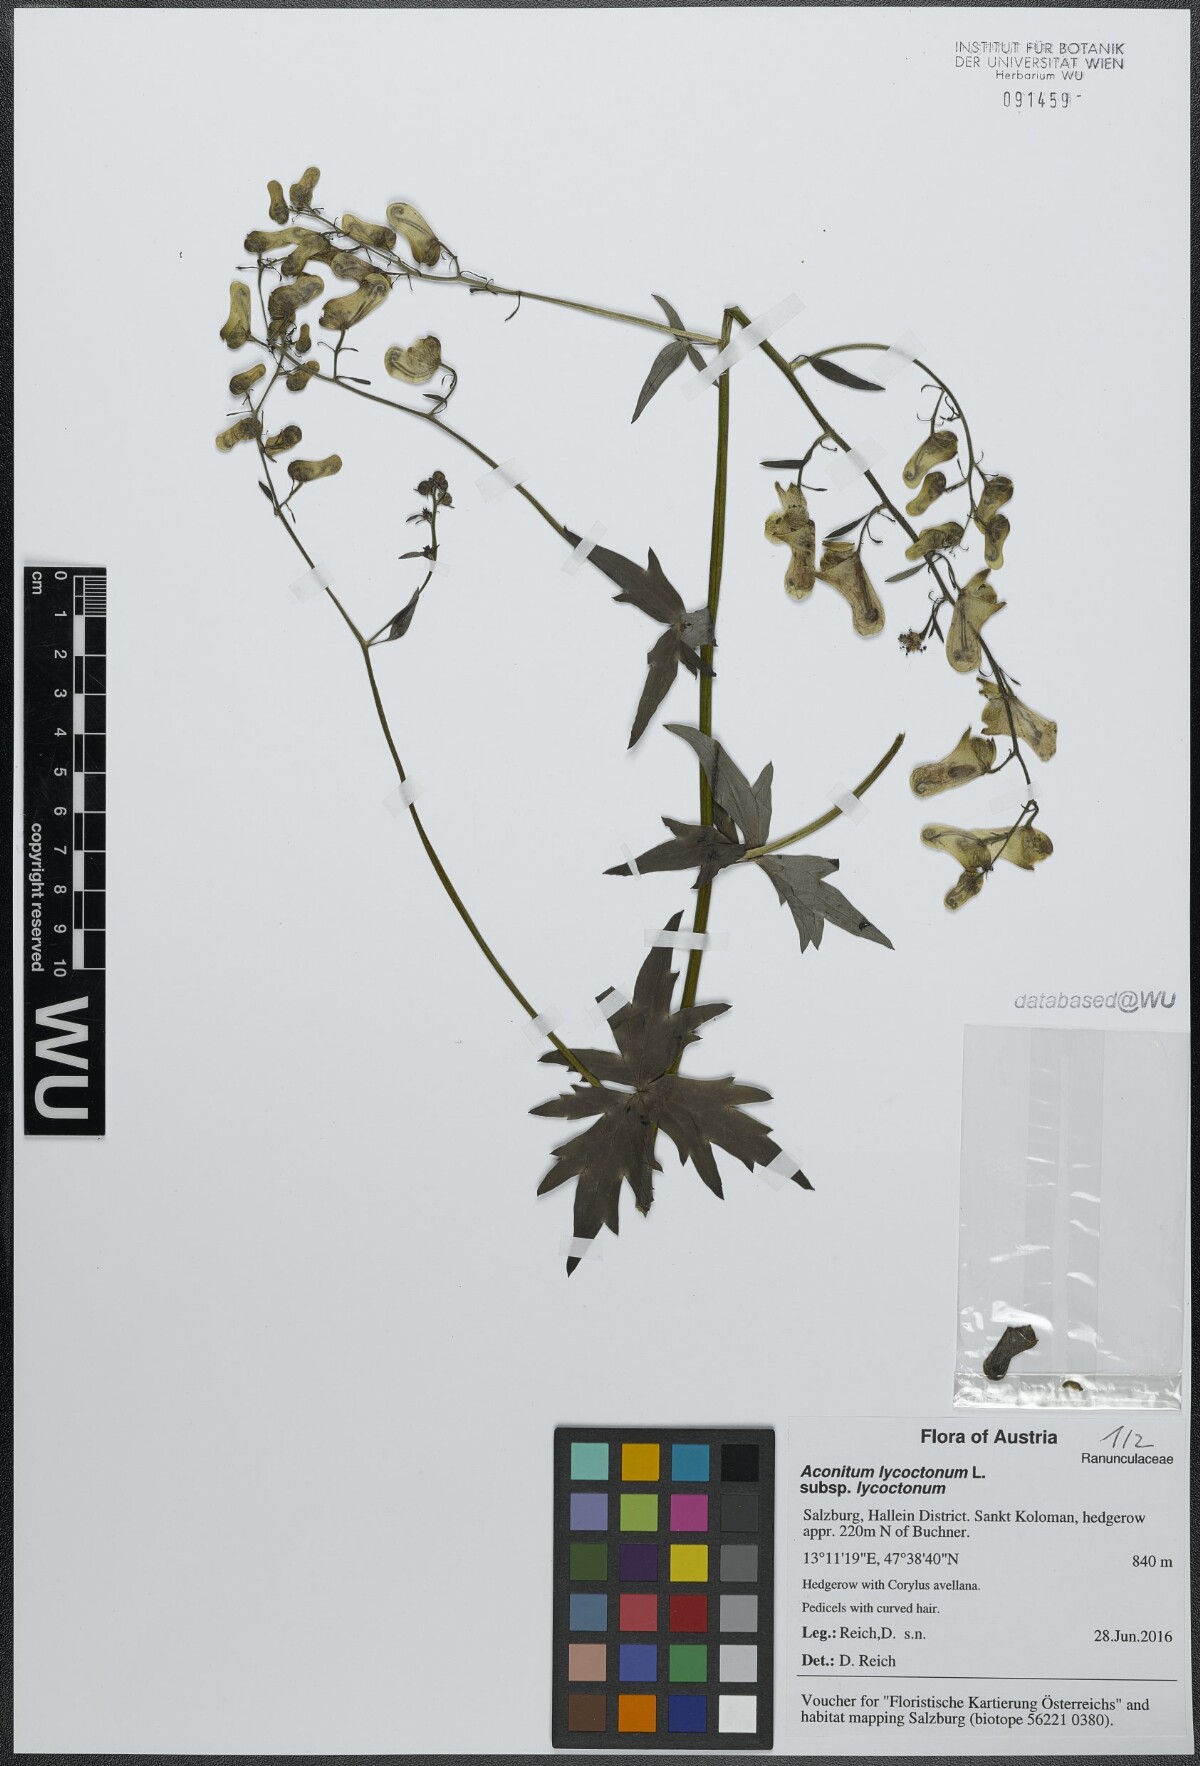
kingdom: Plantae
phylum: Tracheophyta
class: Magnoliopsida
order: Ranunculales
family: Ranunculaceae
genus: Aconitum
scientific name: Aconitum lycoctonum
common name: Wolf's-bane
